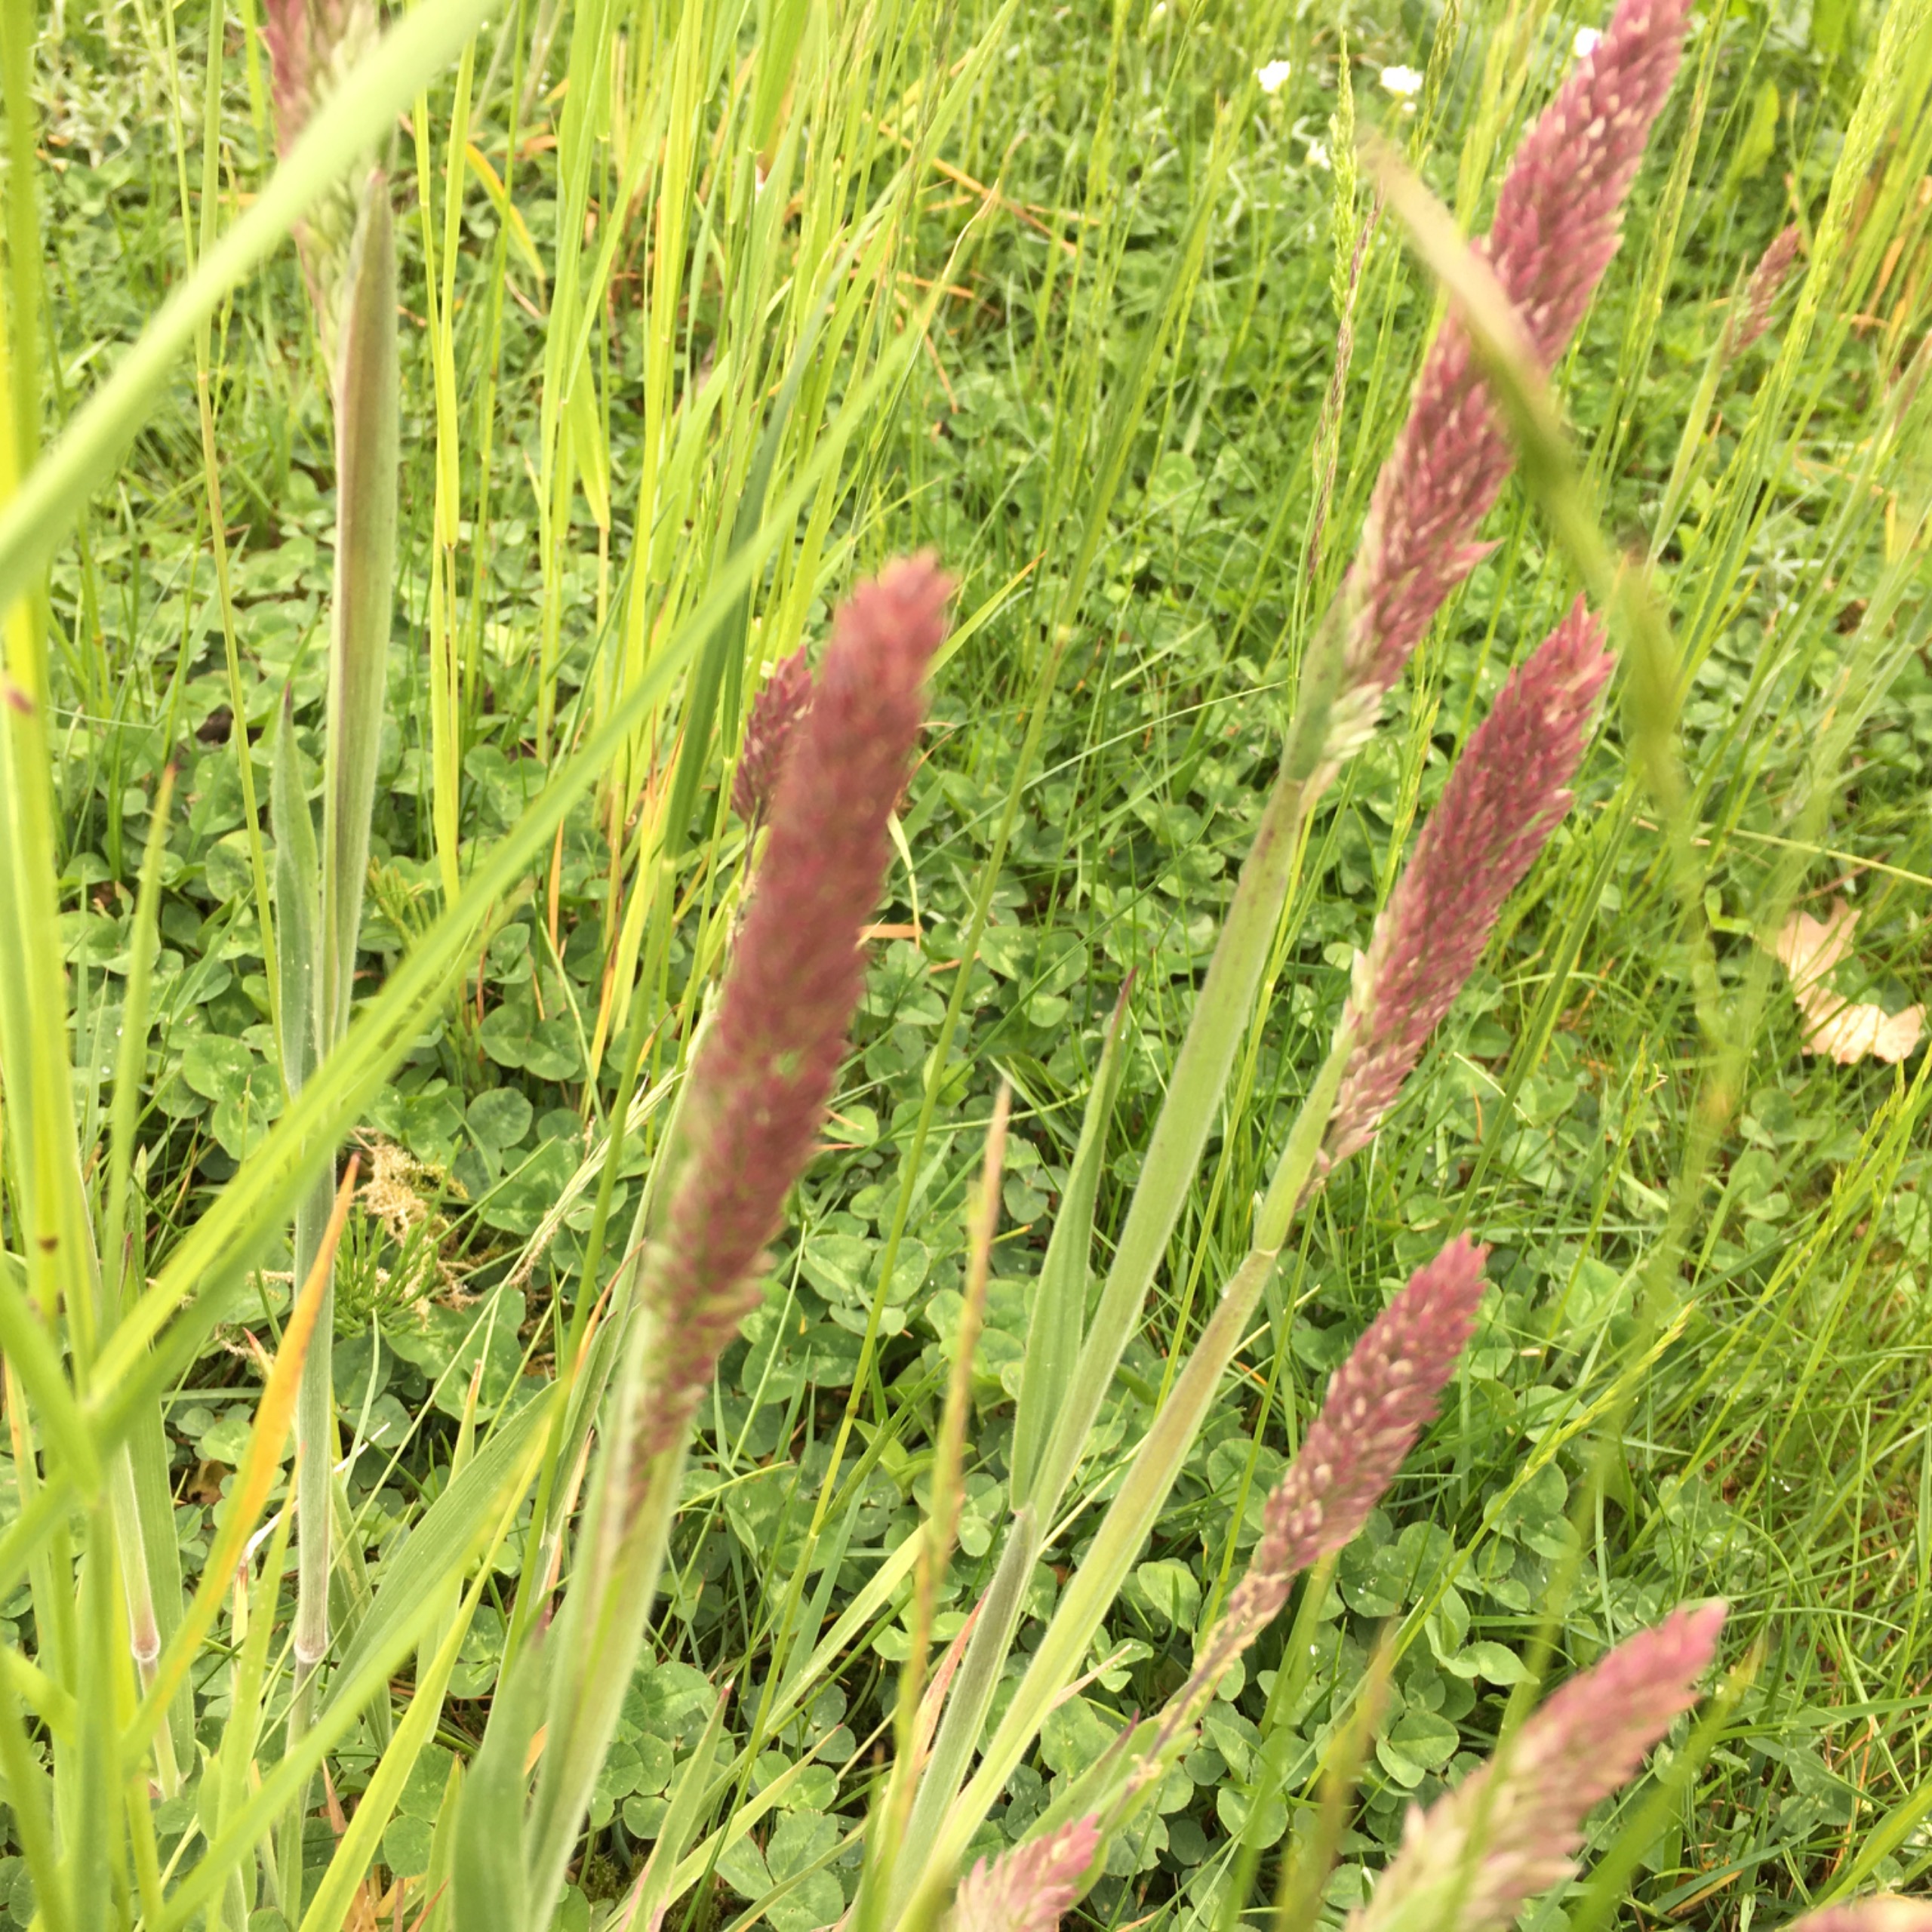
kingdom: Plantae
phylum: Tracheophyta
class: Liliopsida
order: Poales
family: Poaceae
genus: Holcus
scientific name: Holcus lanatus
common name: Fløjlsgræs
